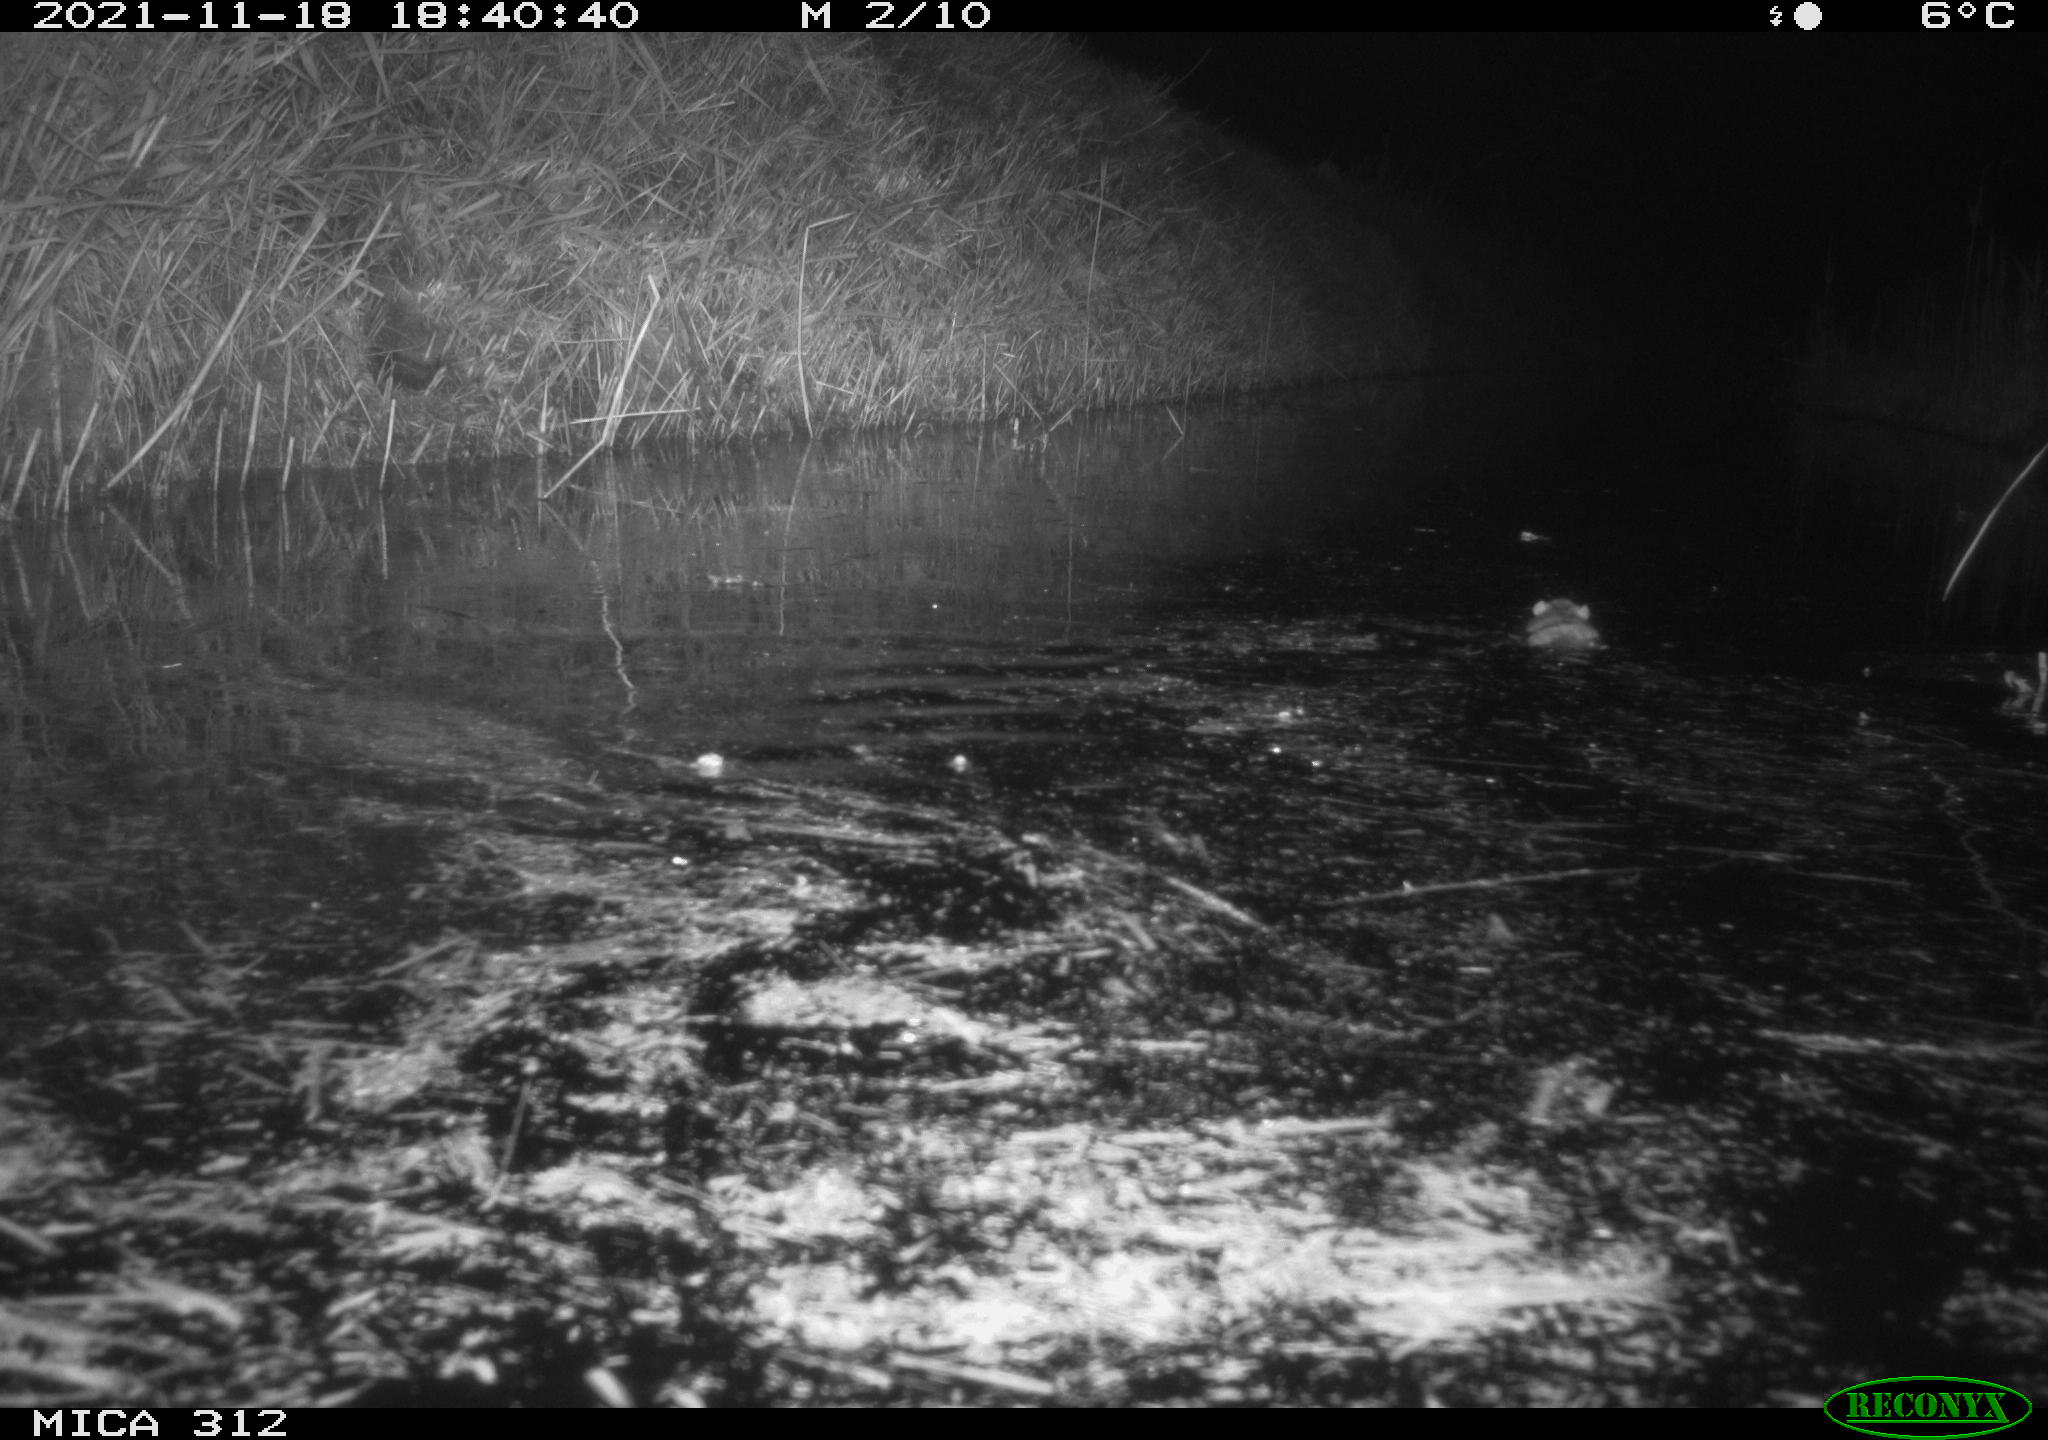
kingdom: Animalia
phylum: Chordata
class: Mammalia
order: Rodentia
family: Muridae
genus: Rattus
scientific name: Rattus norvegicus
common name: Brown rat
